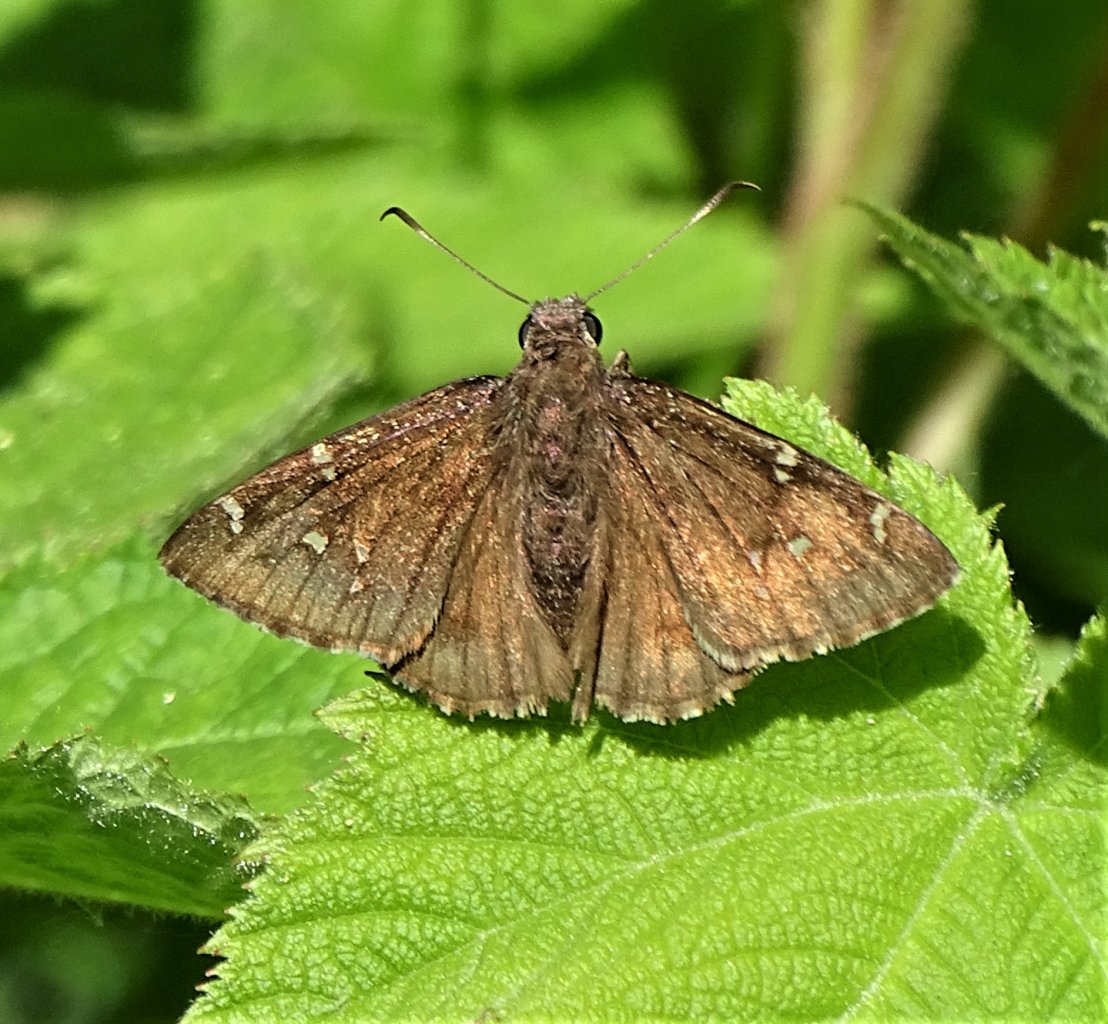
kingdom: Animalia
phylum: Arthropoda
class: Insecta
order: Lepidoptera
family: Hesperiidae
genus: Autochton
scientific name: Autochton
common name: Northern Cloudywing
